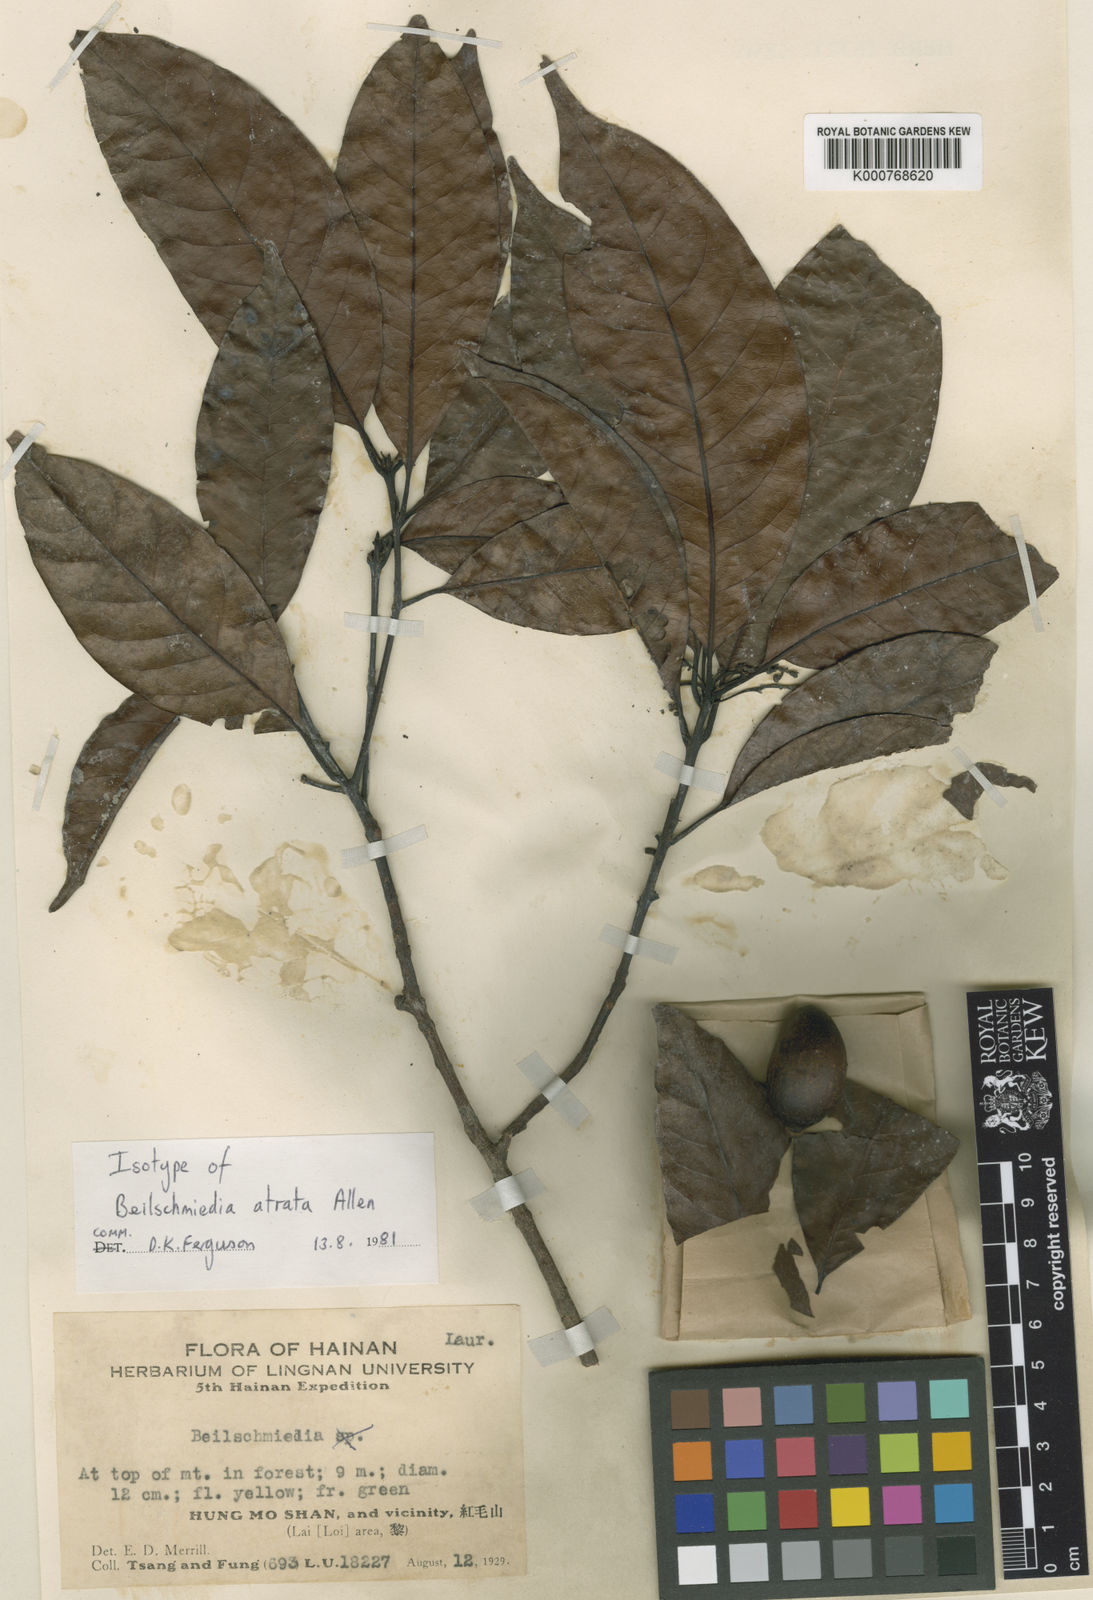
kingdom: Plantae
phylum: Tracheophyta
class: Magnoliopsida
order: Laurales
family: Lauraceae
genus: Beilschmiedia
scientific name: Beilschmiedia pergamentacea
